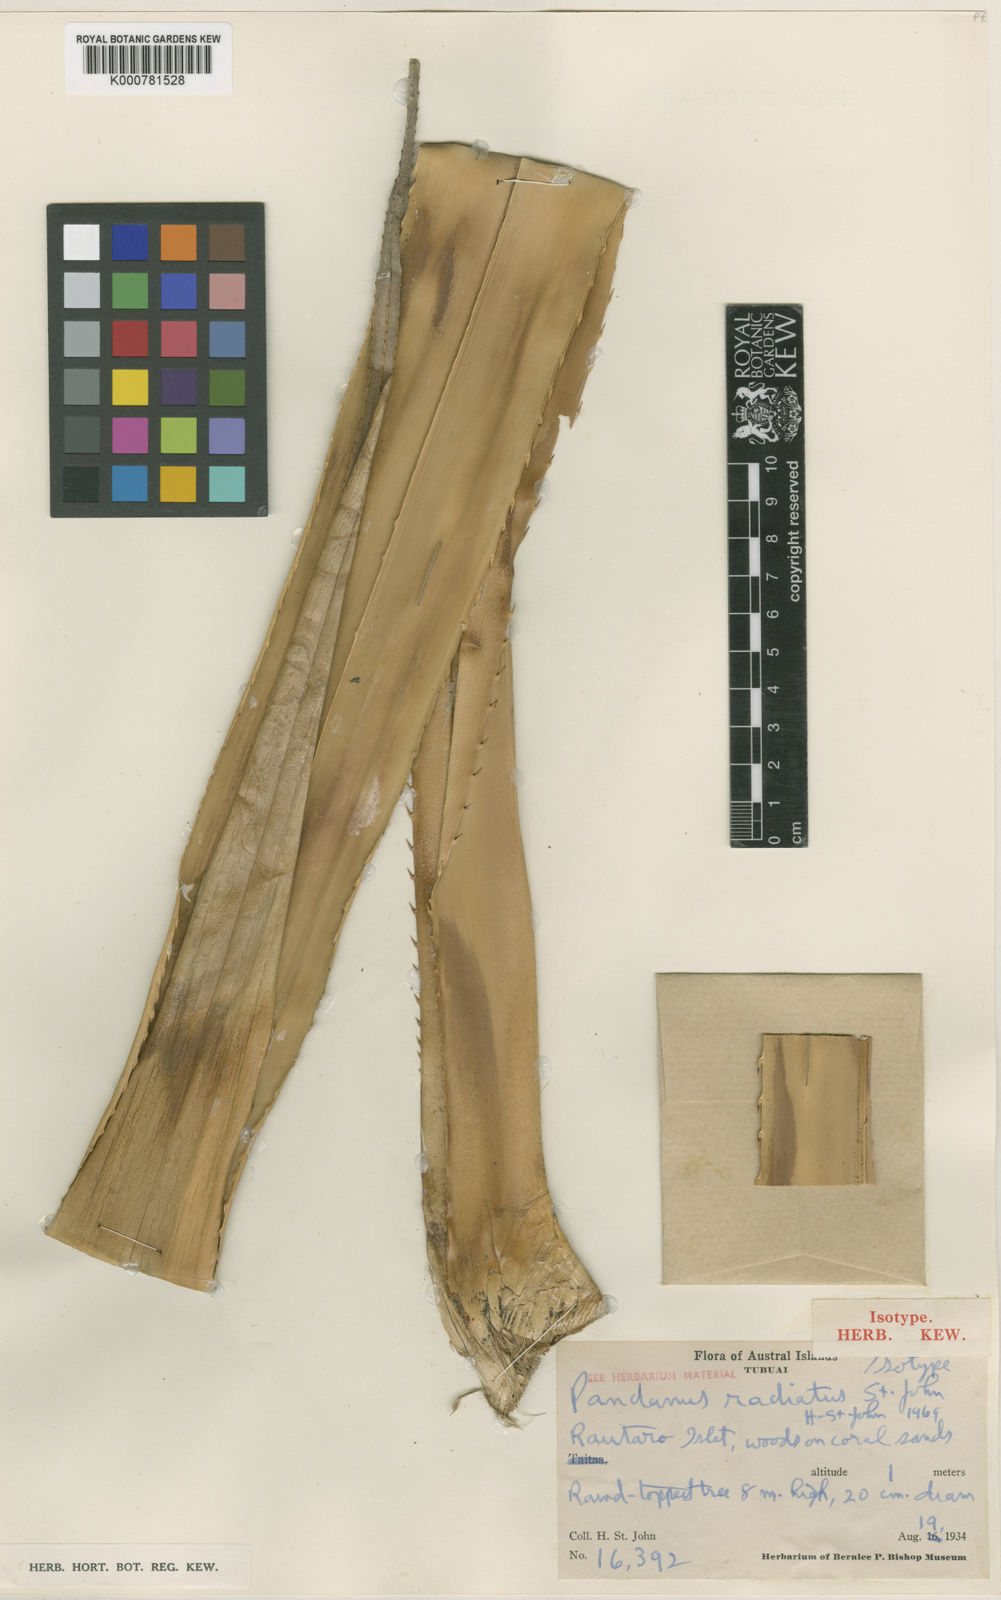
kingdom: Plantae
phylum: Tracheophyta
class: Liliopsida
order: Pandanales
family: Pandanaceae
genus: Pandanus
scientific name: Pandanus tectorius
